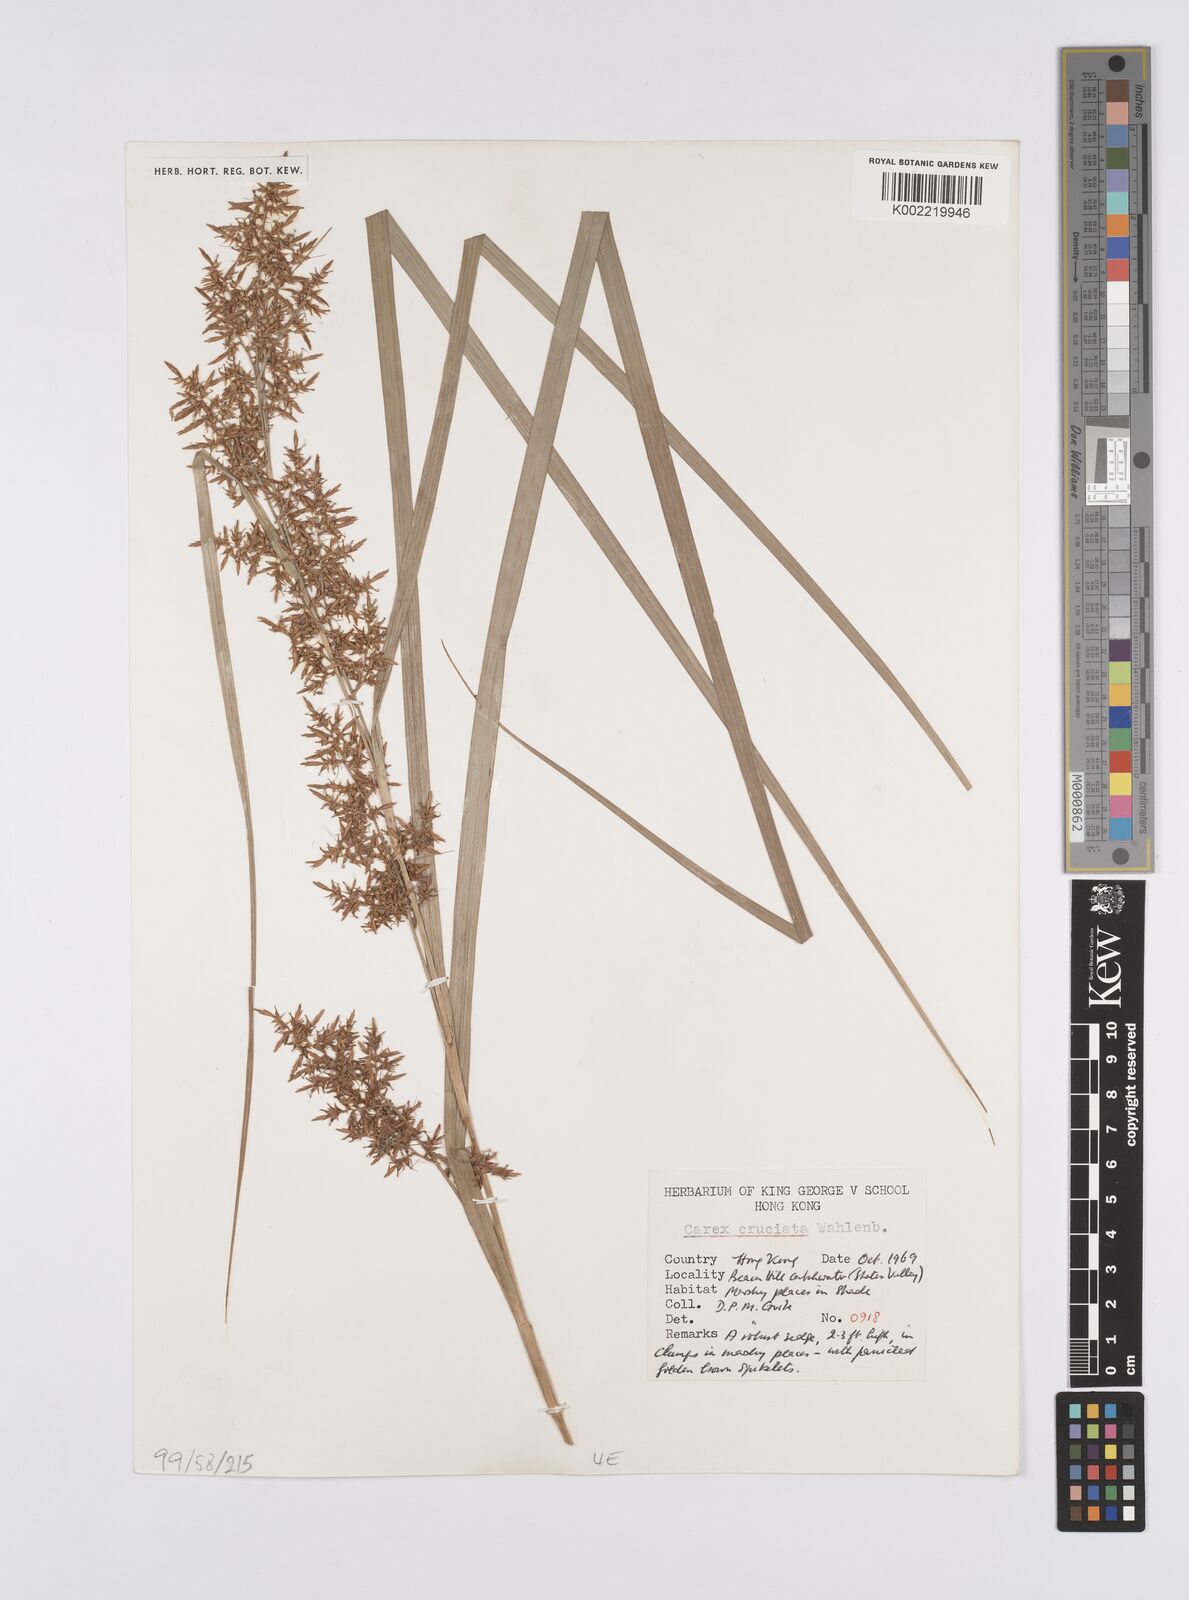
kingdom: Plantae
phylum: Tracheophyta
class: Liliopsida
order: Poales
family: Cyperaceae
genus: Carex
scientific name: Carex cruciata
